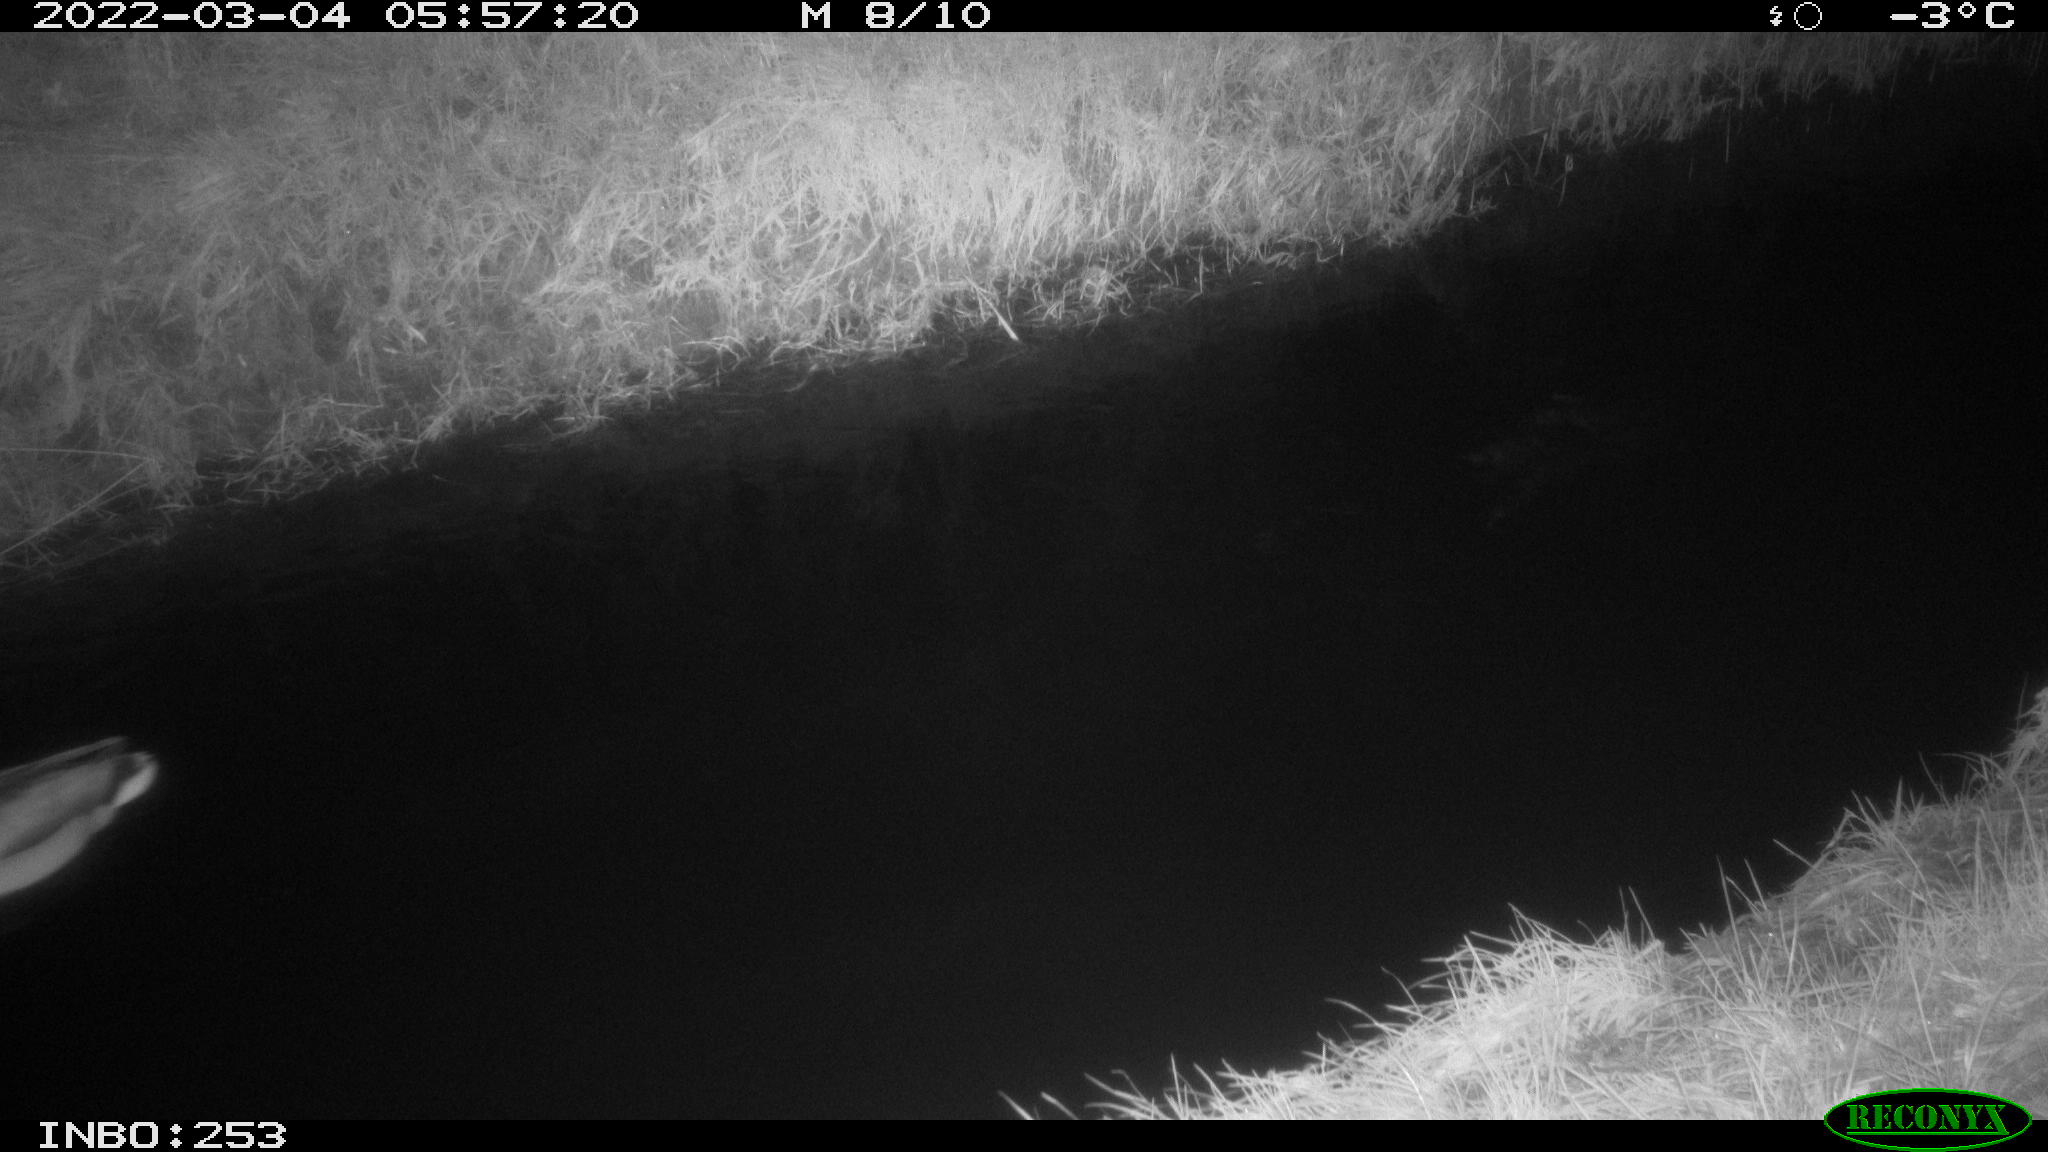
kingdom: Animalia
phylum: Chordata
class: Aves
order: Anseriformes
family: Anatidae
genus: Anas
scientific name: Anas platyrhynchos
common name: Mallard
